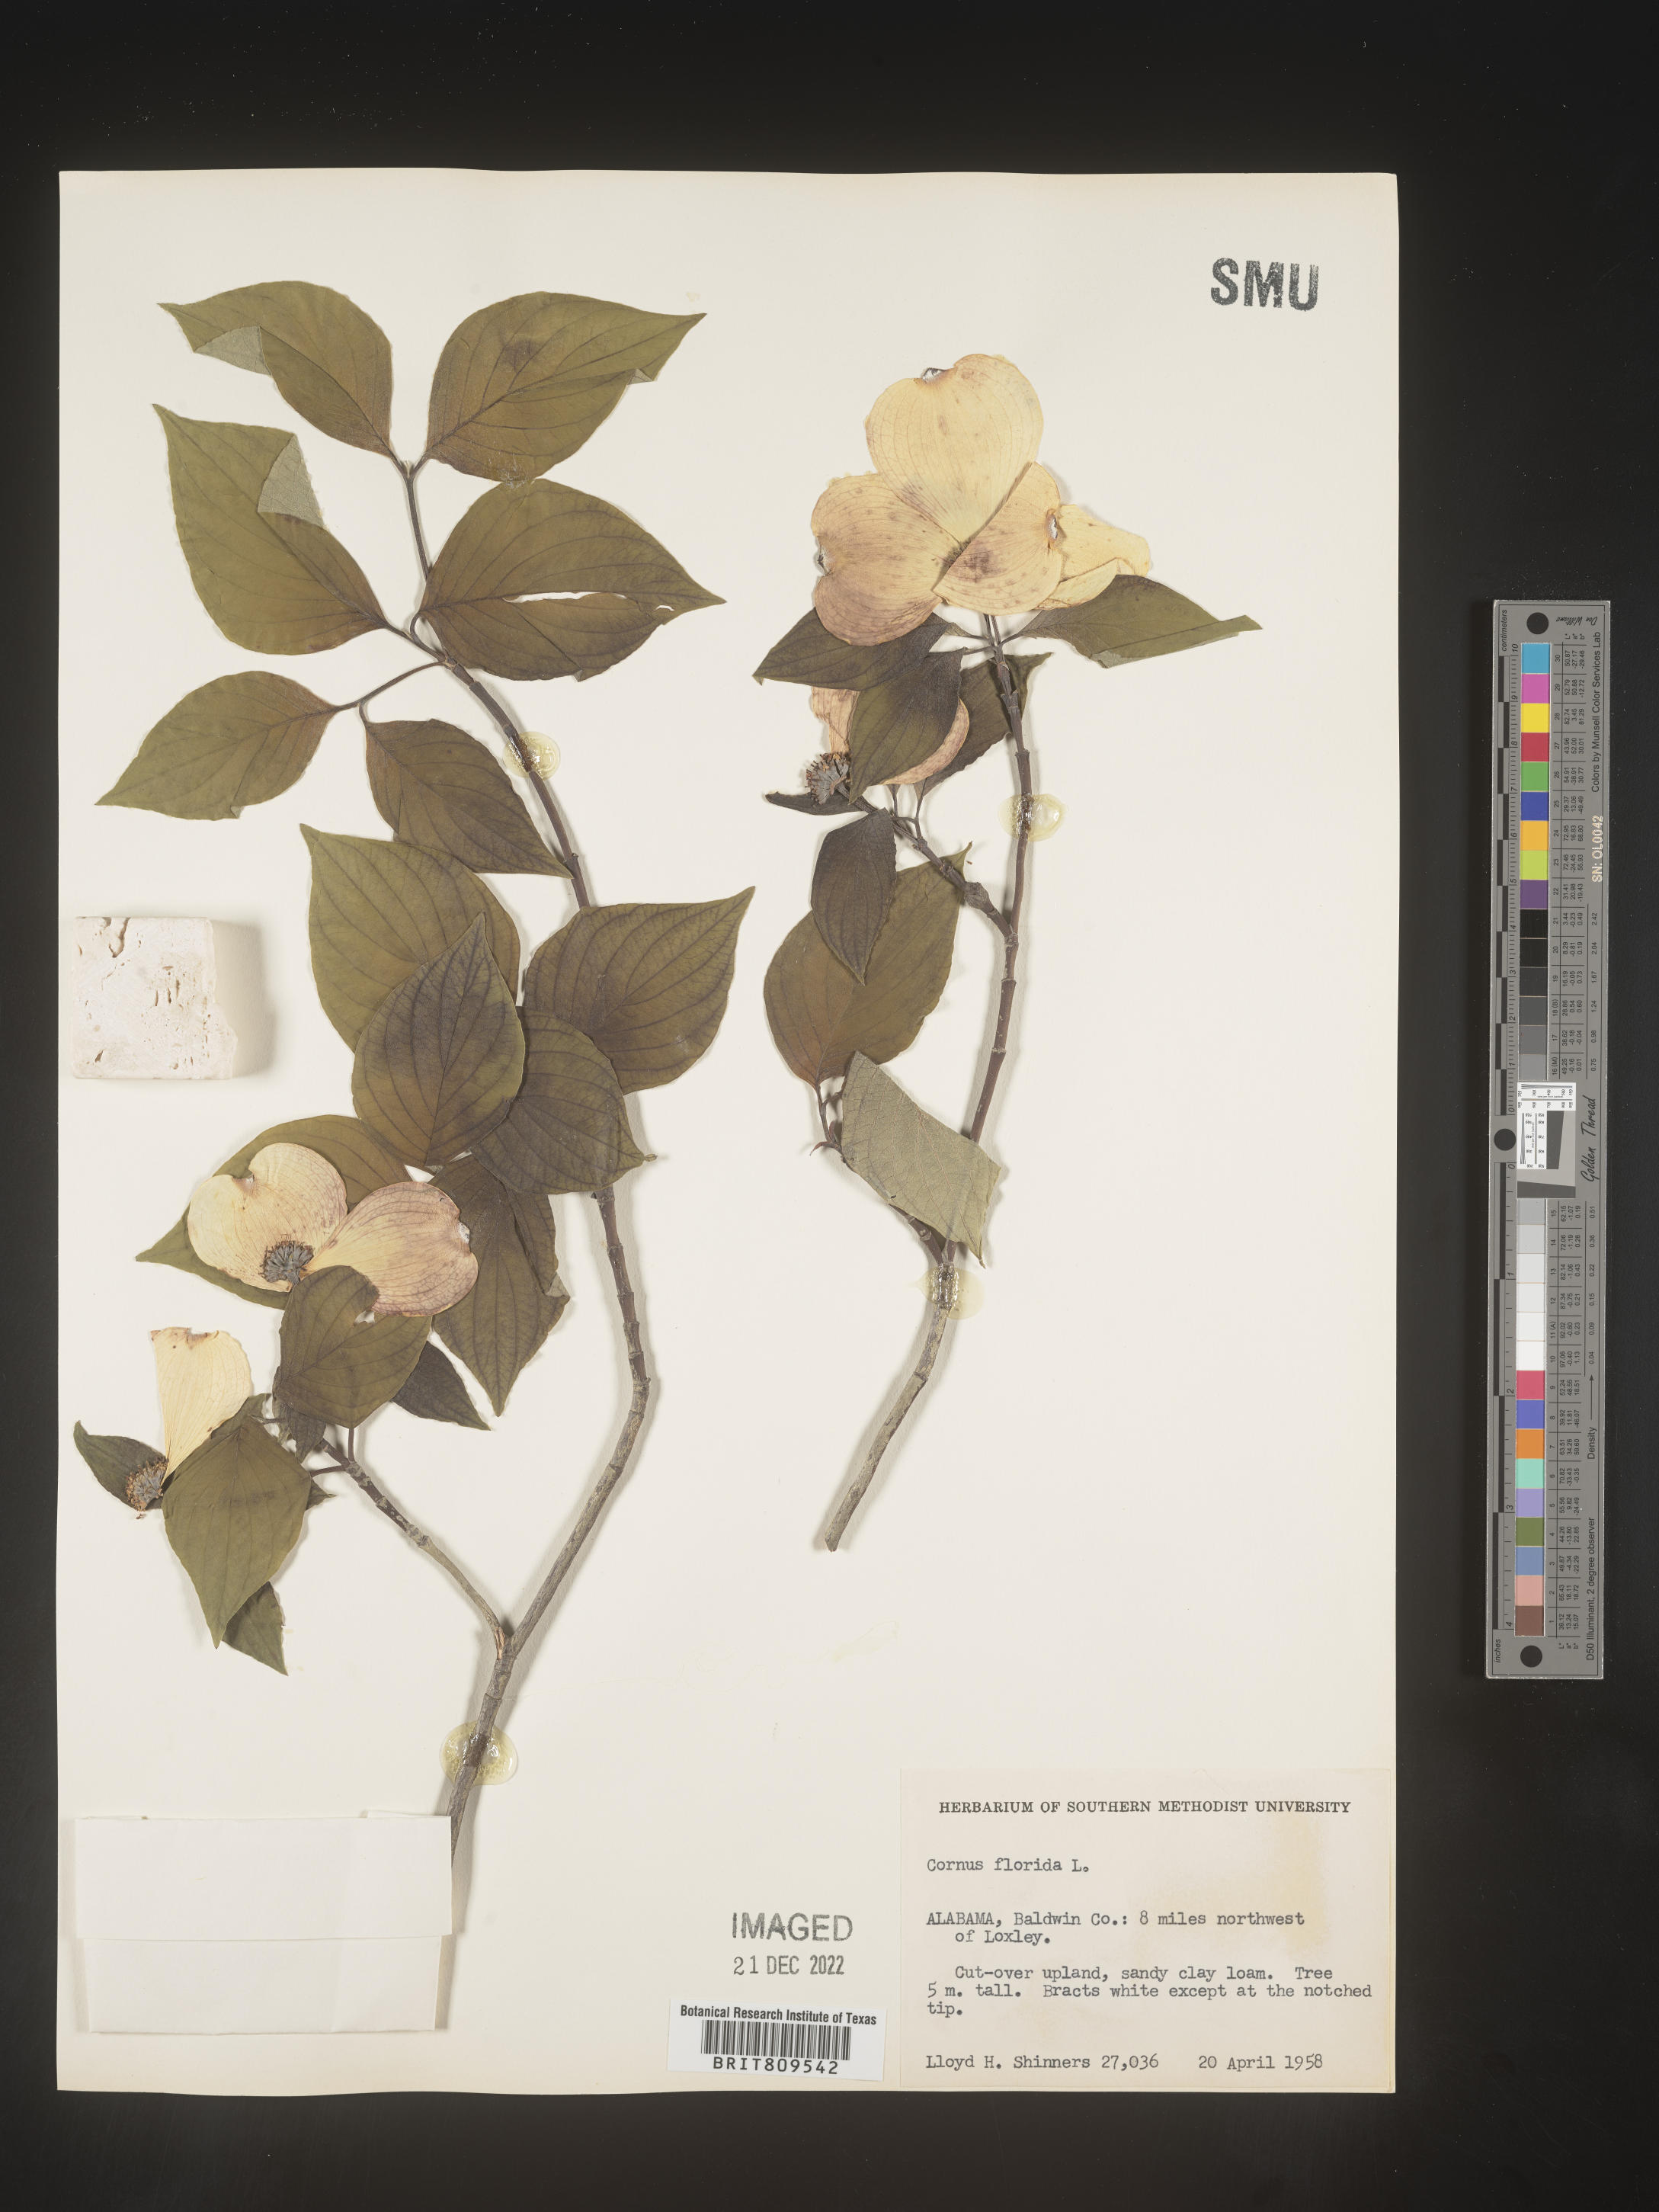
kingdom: Plantae
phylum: Tracheophyta
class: Magnoliopsida
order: Cornales
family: Cornaceae
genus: Cornus
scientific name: Cornus florida
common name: Flowering dogwood
